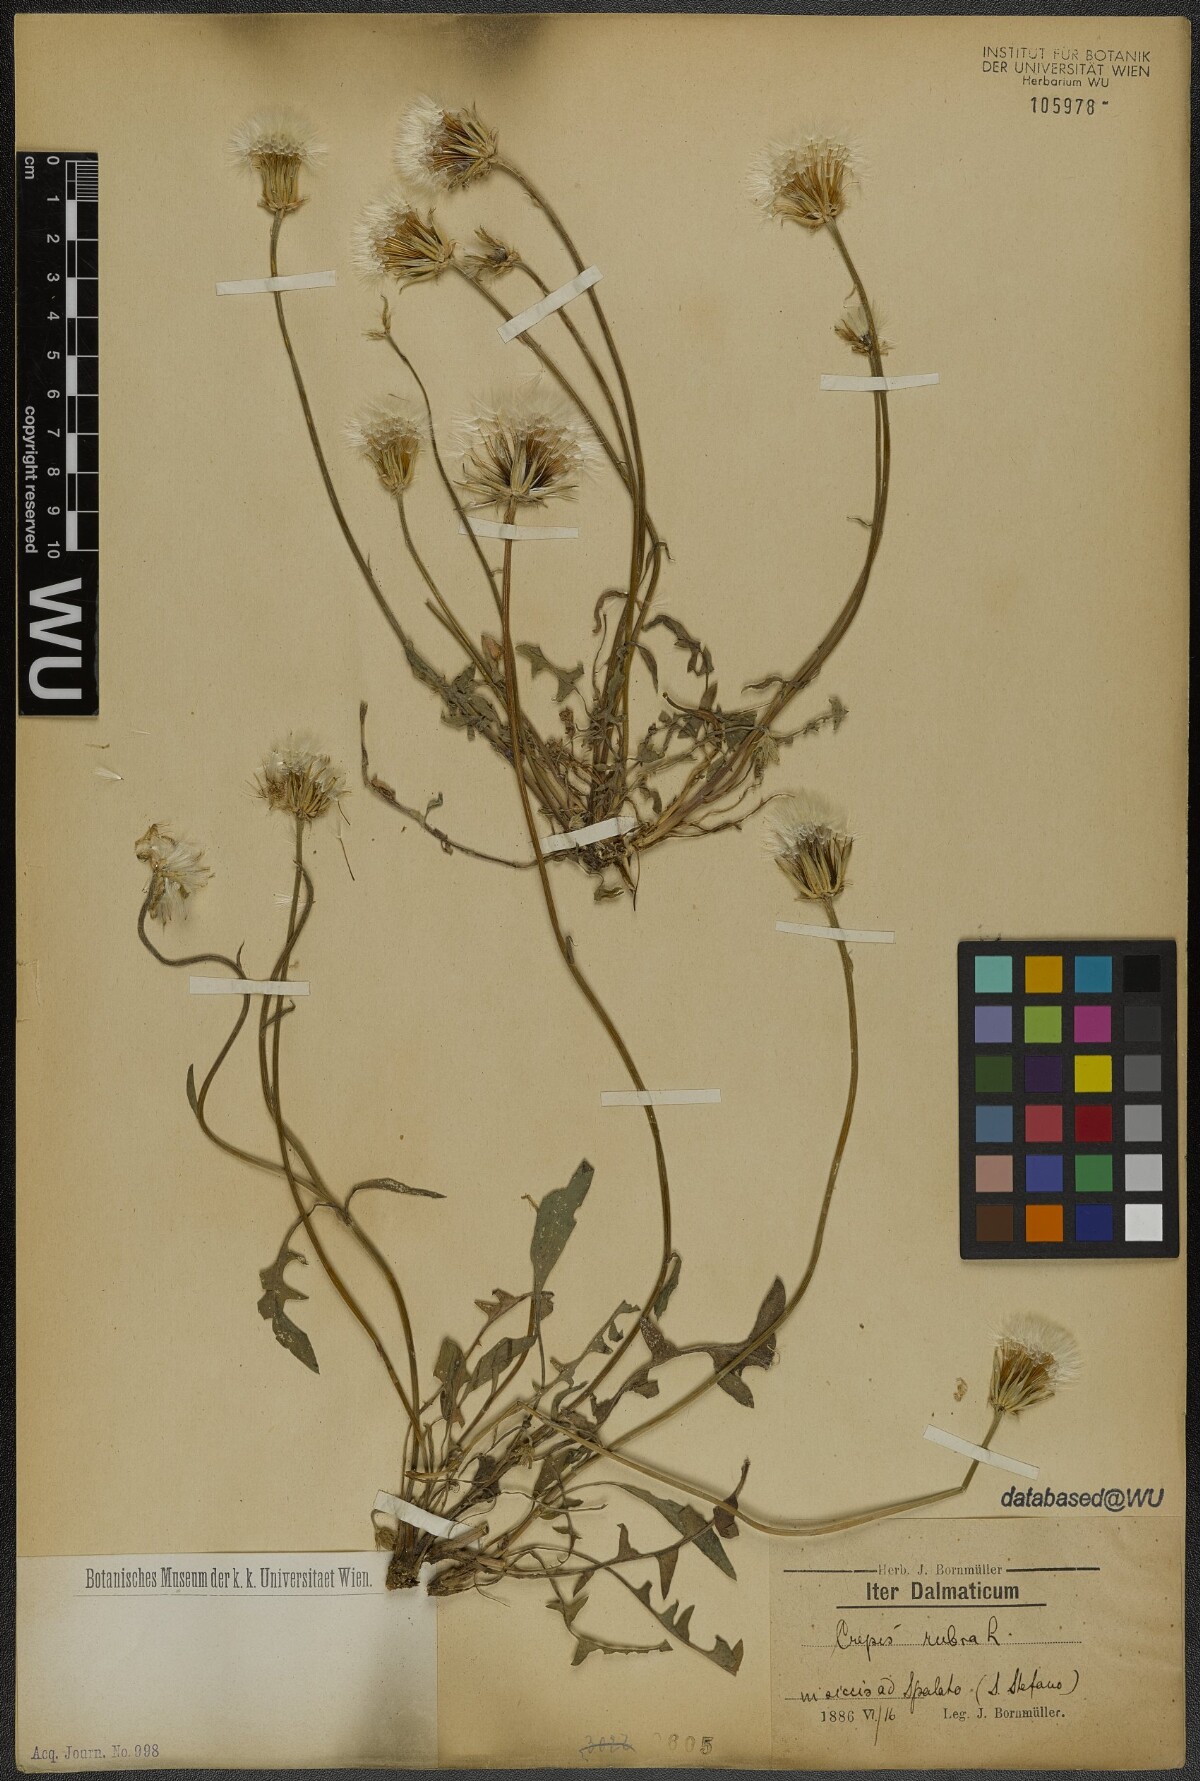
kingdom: Plantae
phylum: Tracheophyta
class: Magnoliopsida
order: Asterales
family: Asteraceae
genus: Crepis
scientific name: Crepis rubra
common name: Pink hawk's-beard
